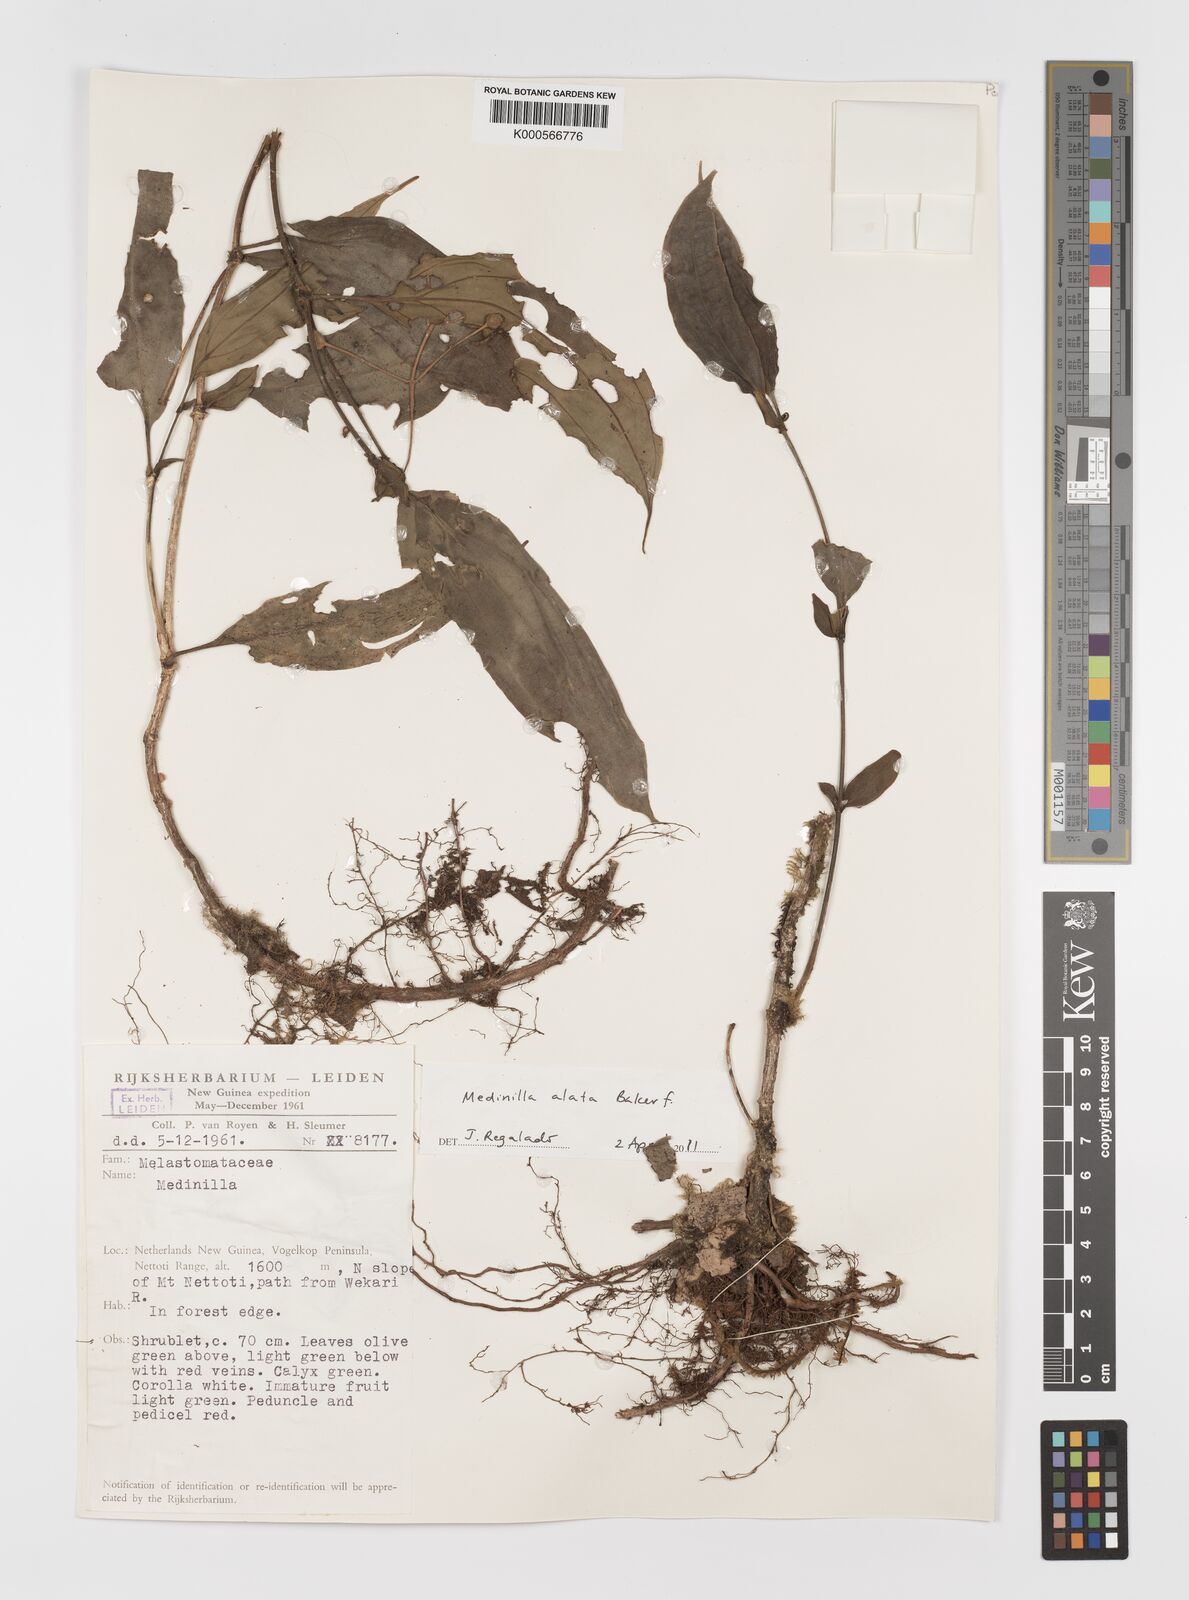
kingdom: Plantae
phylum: Tracheophyta
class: Magnoliopsida
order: Myrtales
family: Melastomataceae
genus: Medinilla
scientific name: Medinilla alata
